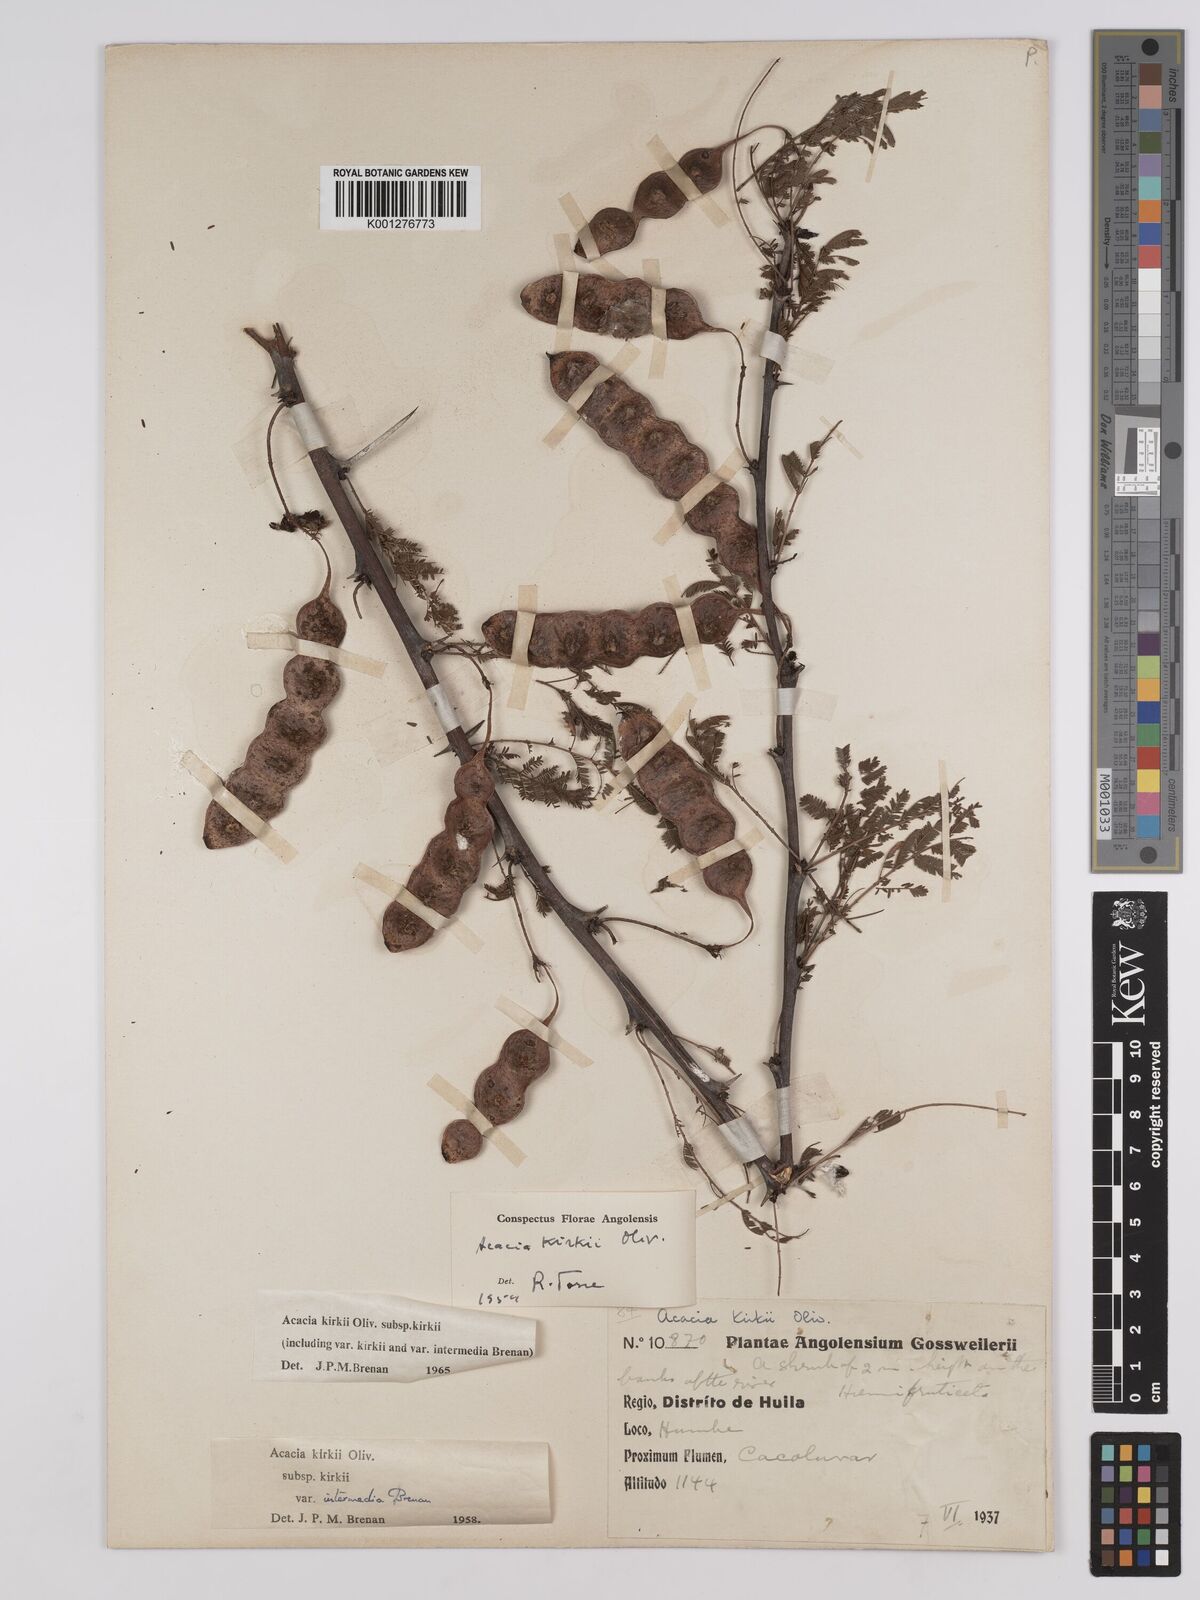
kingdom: Plantae
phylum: Tracheophyta
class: Magnoliopsida
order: Fabales
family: Fabaceae
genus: Vachellia
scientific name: Vachellia kirkii
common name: Flood-plain acacia
